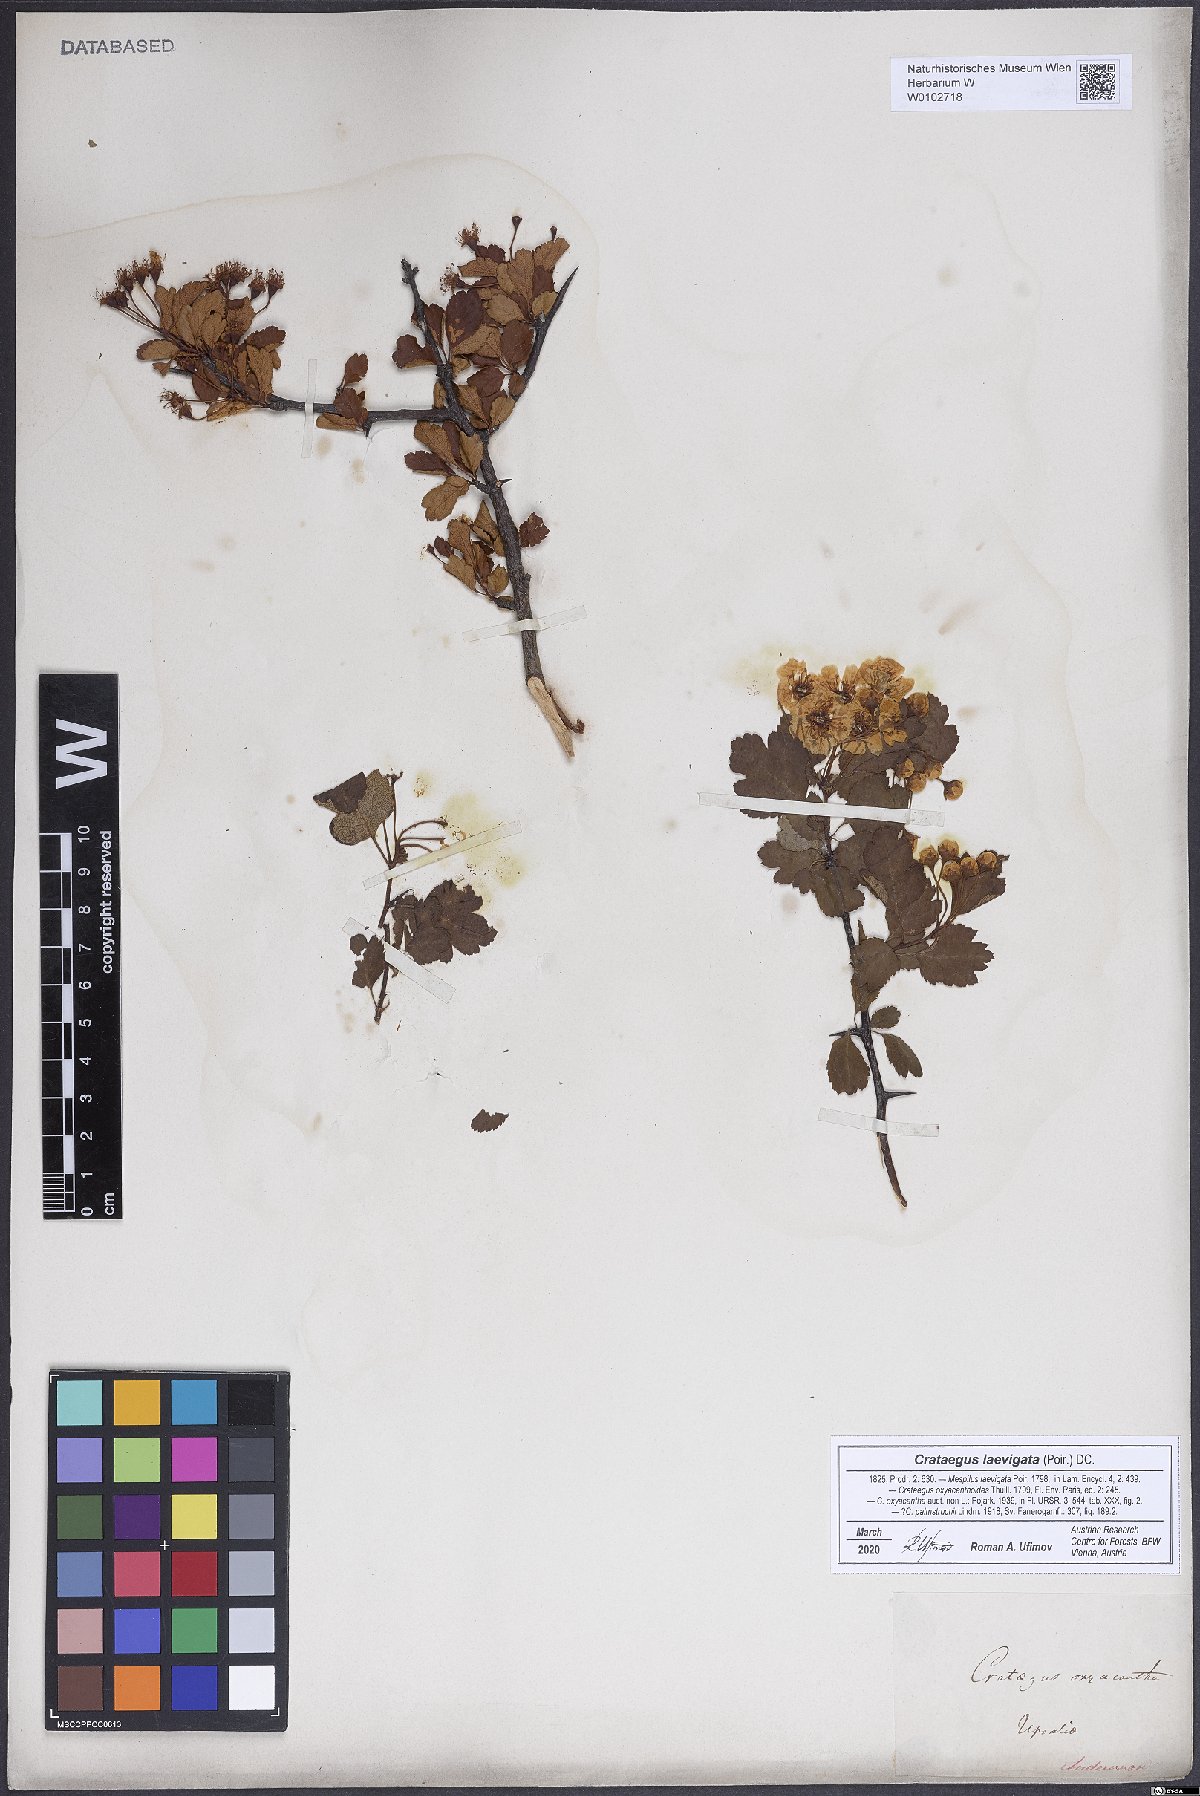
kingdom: Plantae
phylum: Tracheophyta
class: Magnoliopsida
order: Rosales
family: Rosaceae
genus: Crataegus
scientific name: Crataegus laevigata
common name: Midland hawthorn
